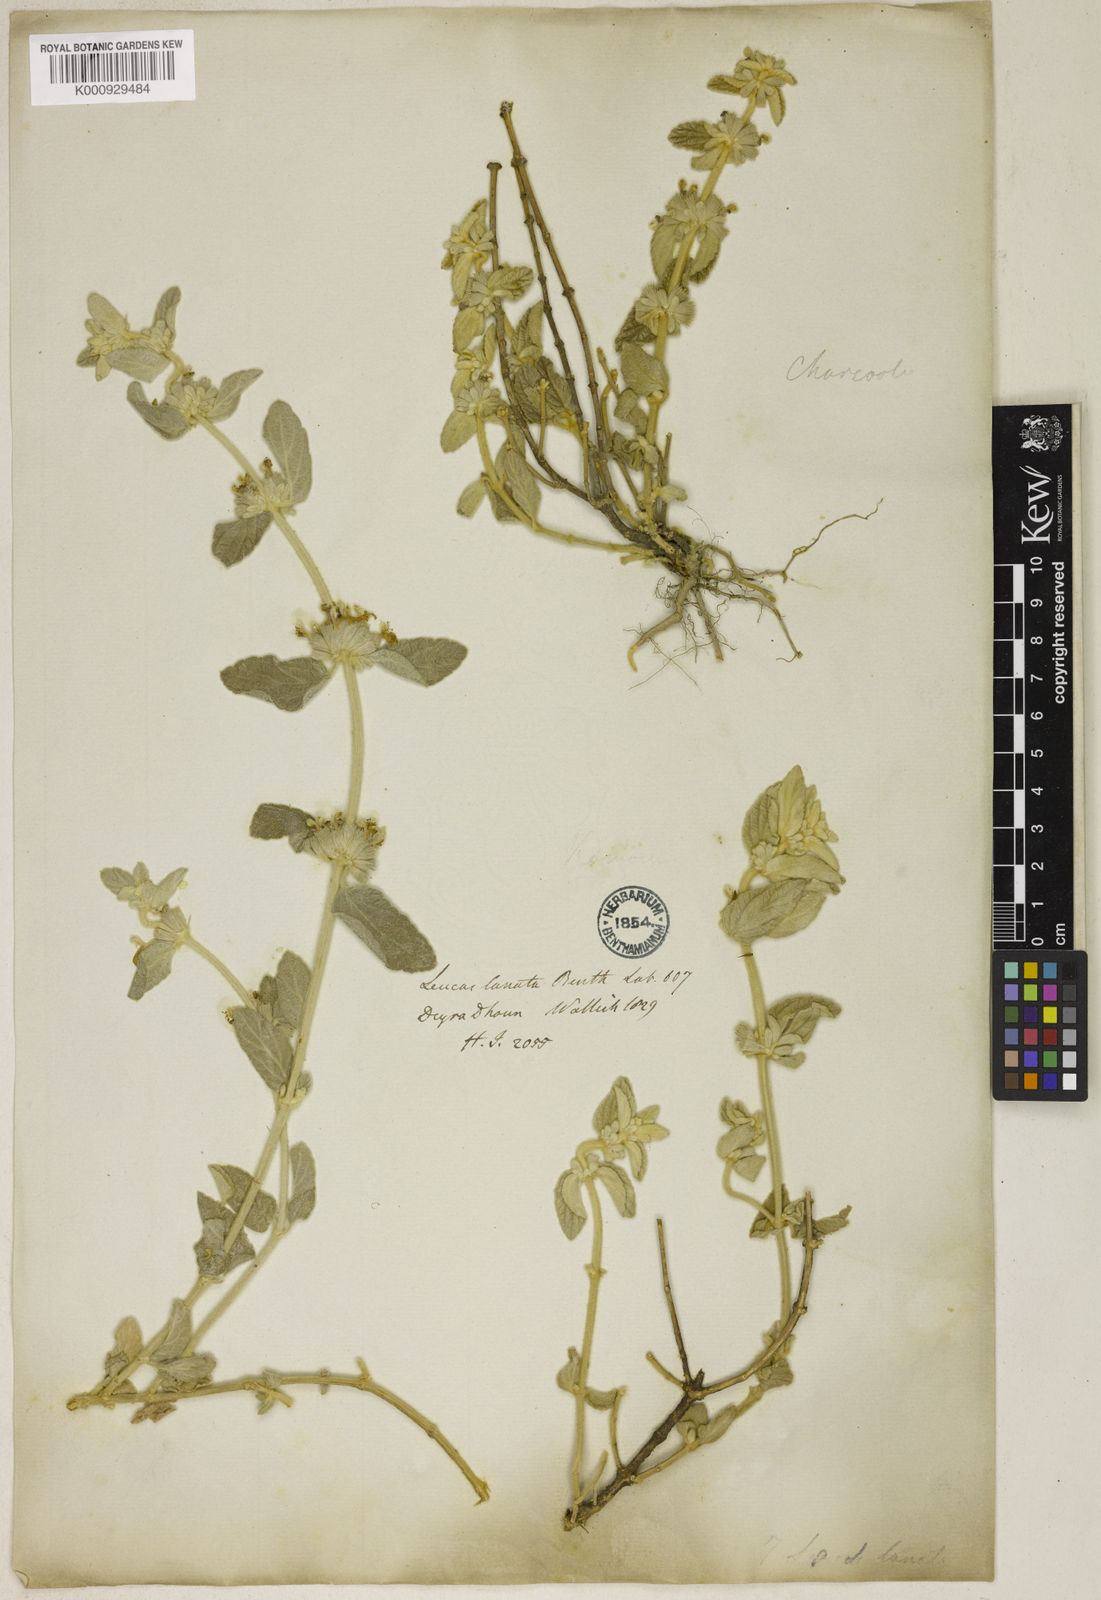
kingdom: Plantae
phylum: Tracheophyta
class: Magnoliopsida
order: Lamiales
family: Lamiaceae
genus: Leucas
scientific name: Leucas lanata
